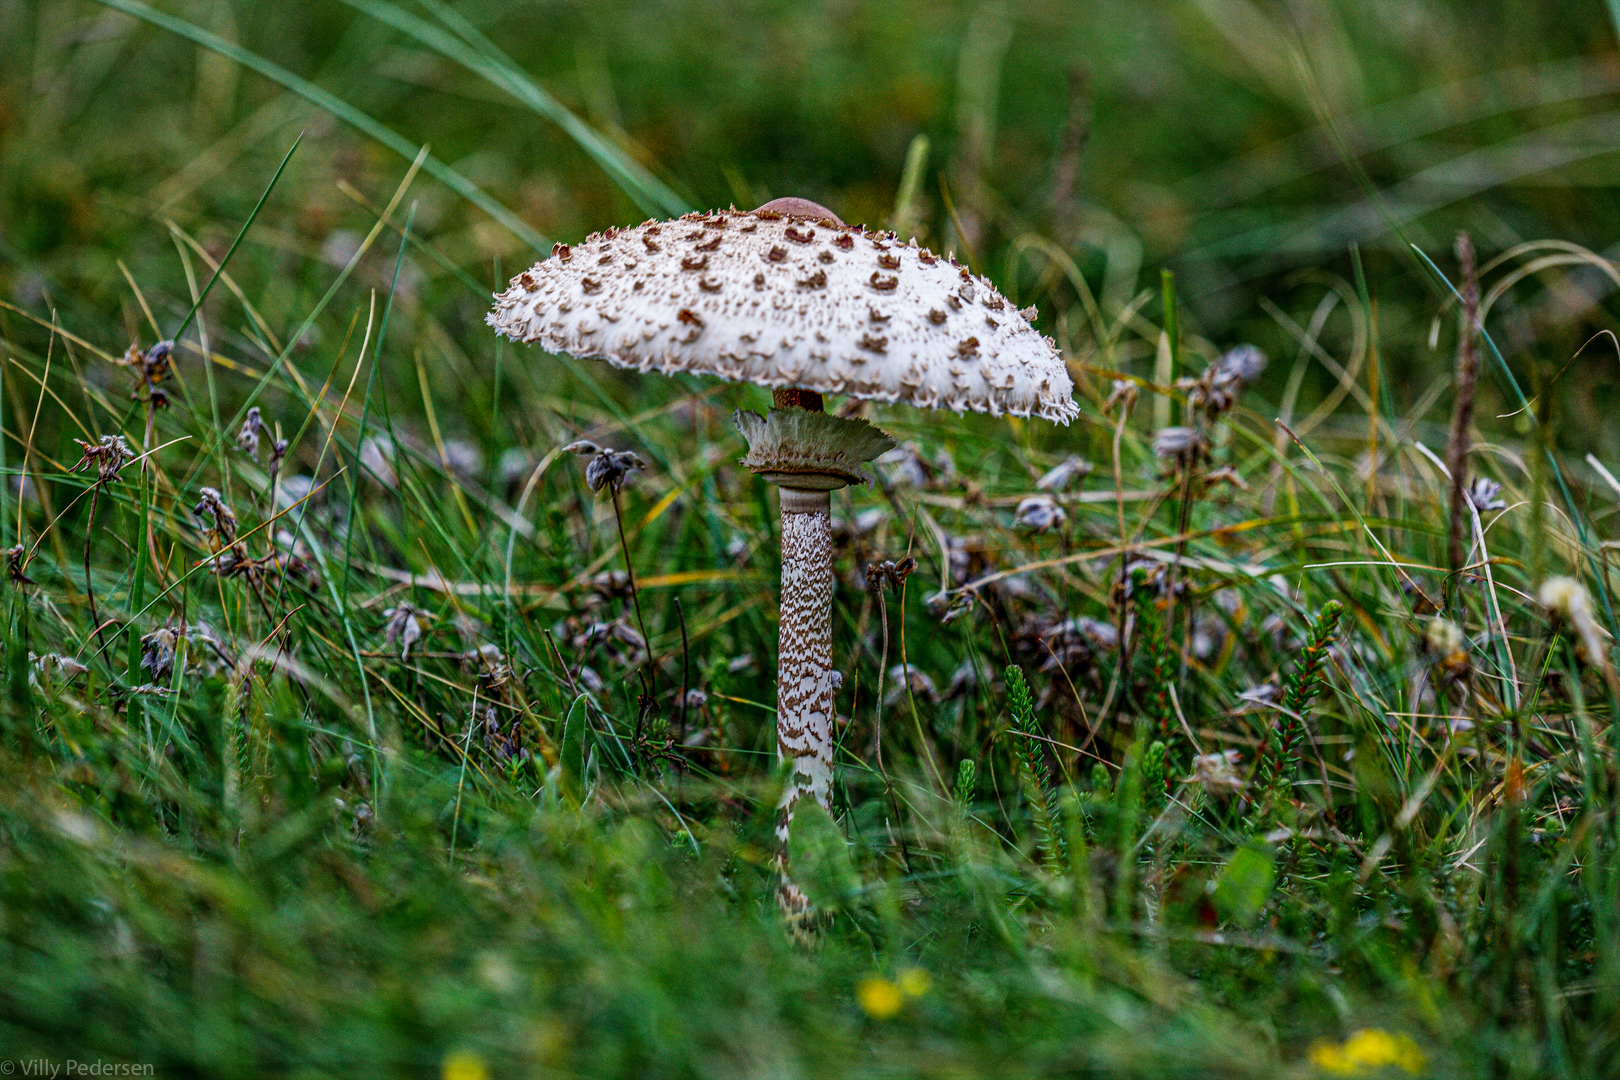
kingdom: Fungi
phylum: Basidiomycota
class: Agaricomycetes
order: Agaricales
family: Agaricaceae
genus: Macrolepiota
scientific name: Macrolepiota procera
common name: stor kæmpeparasolhat
